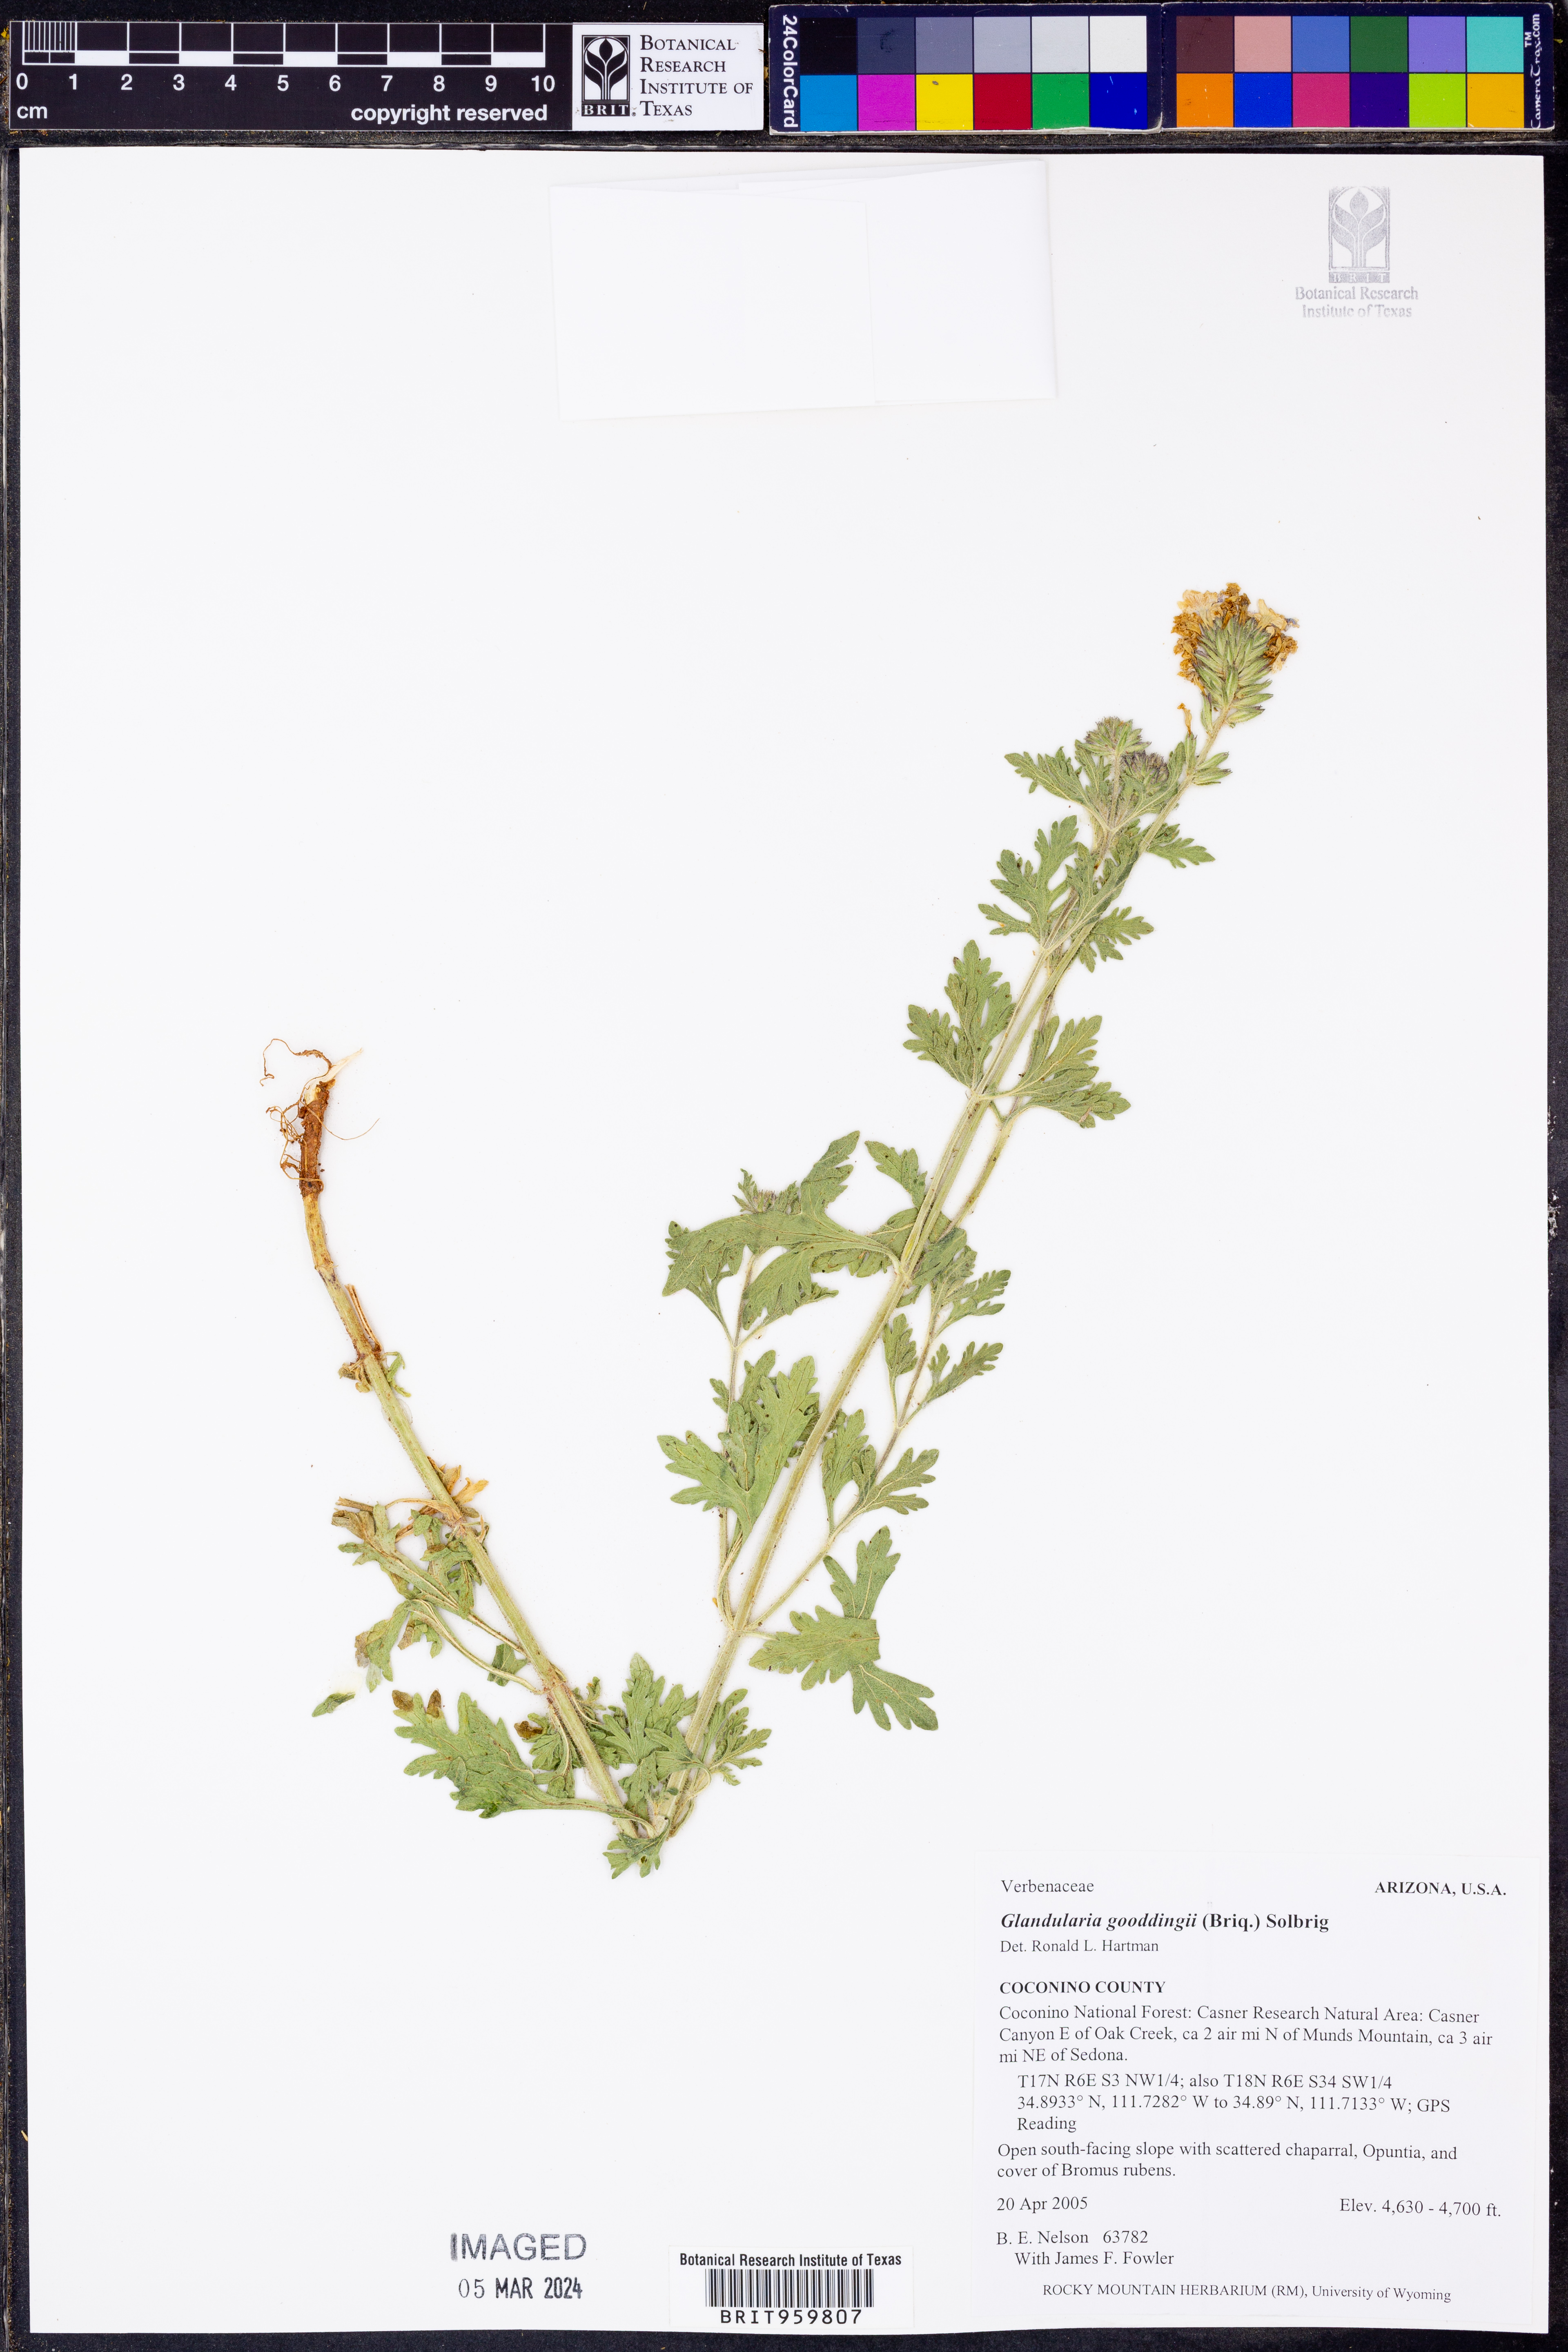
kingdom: Plantae
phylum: Tracheophyta
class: Magnoliopsida
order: Lamiales
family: Verbenaceae
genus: Verbena
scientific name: Verbena gooddingii
